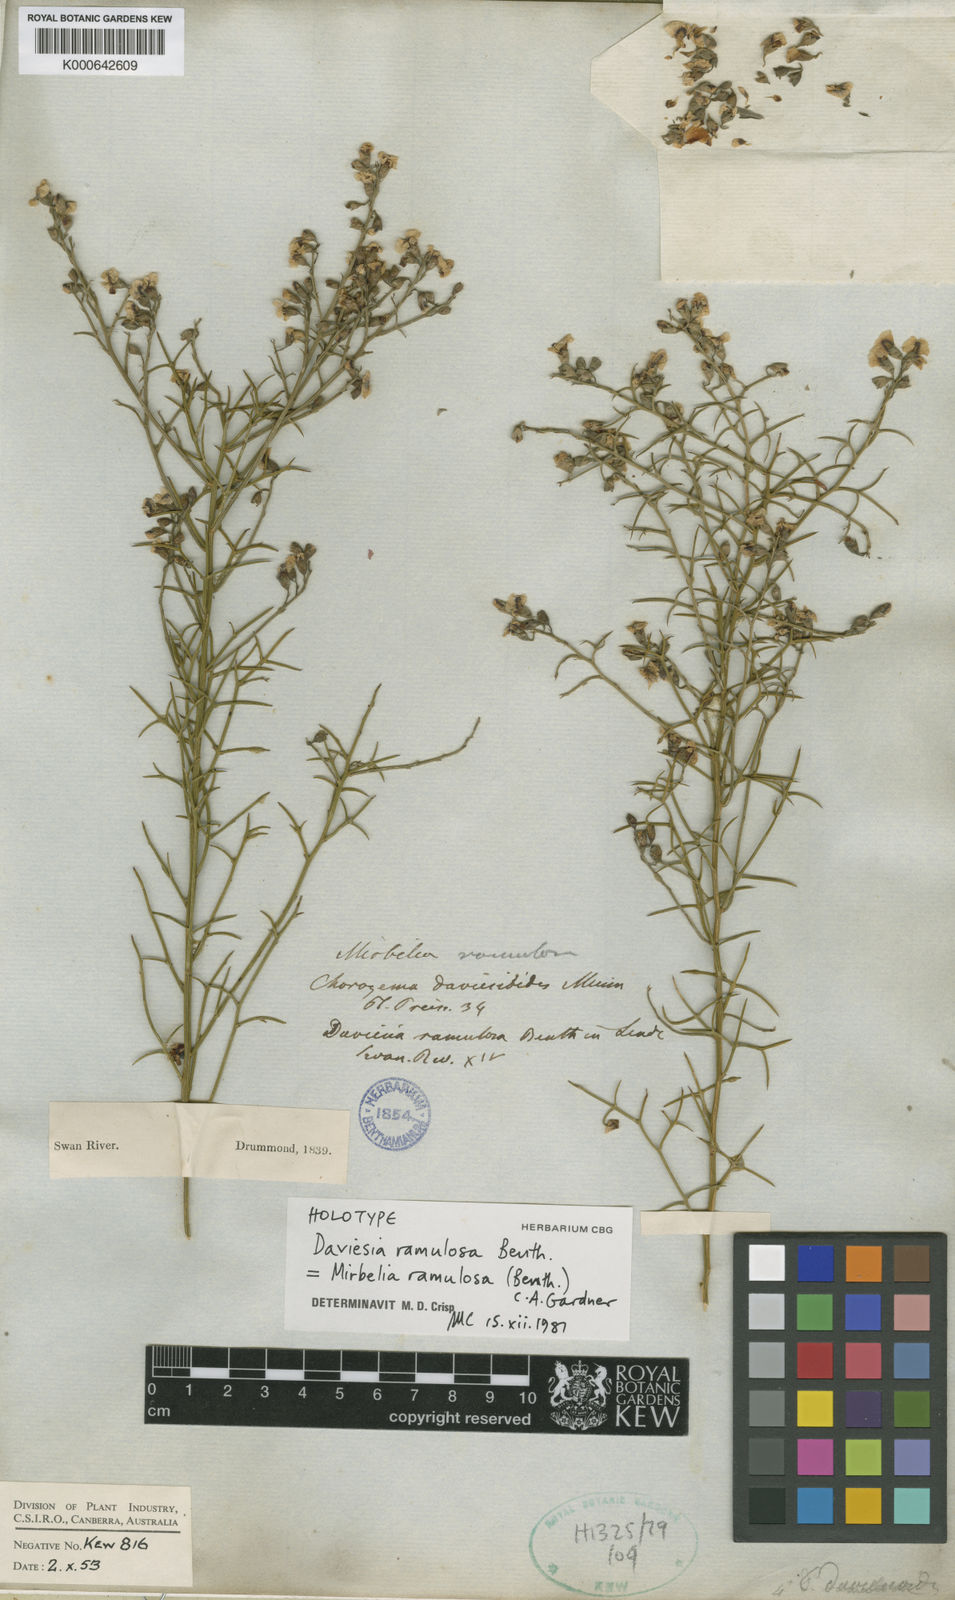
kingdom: Plantae
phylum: Tracheophyta
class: Magnoliopsida
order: Fabales
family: Fabaceae
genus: Mirbelia
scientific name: Mirbelia ramulosa
